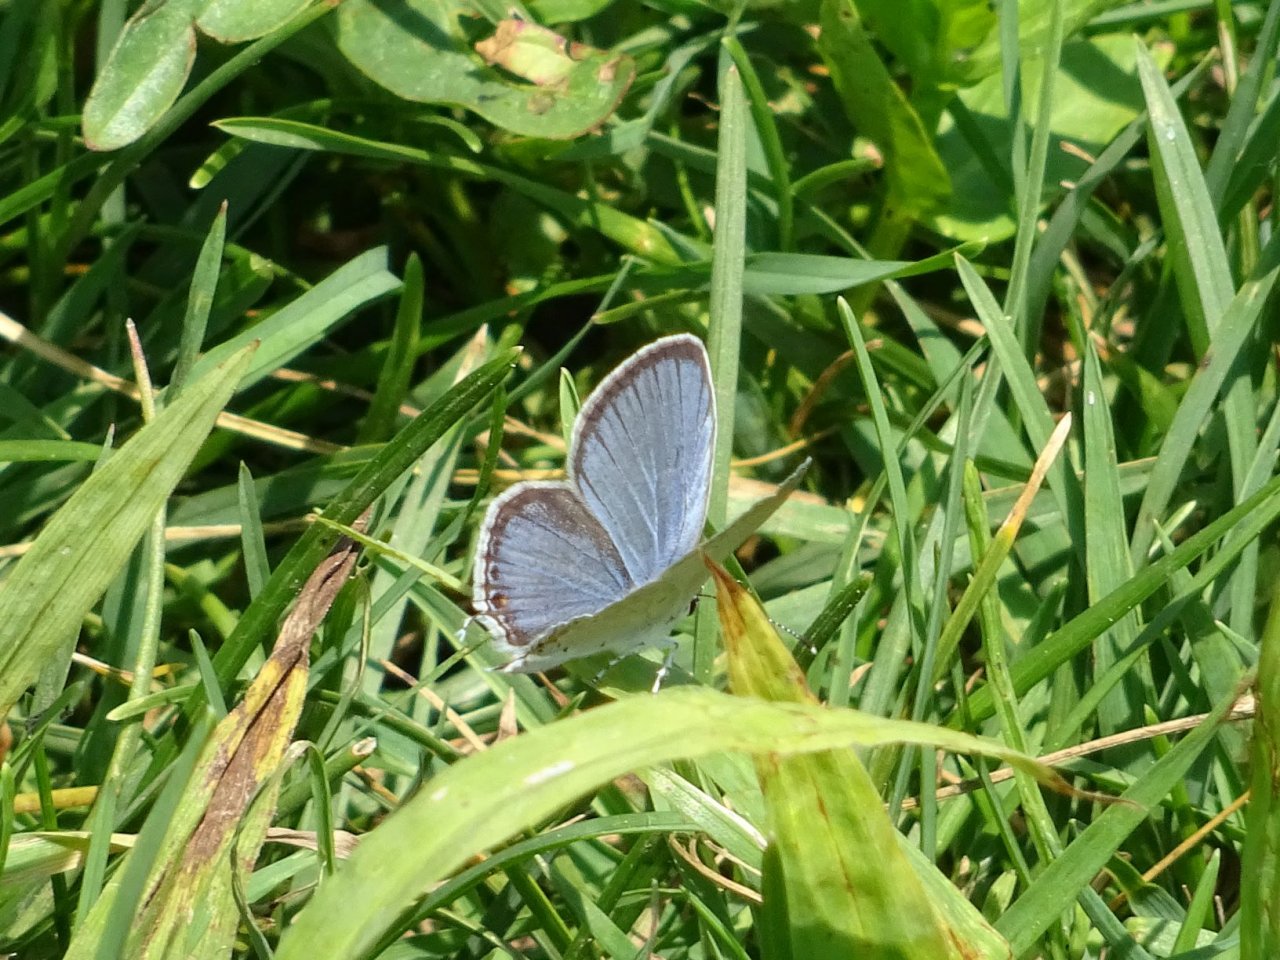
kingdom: Animalia
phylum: Arthropoda
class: Insecta
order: Lepidoptera
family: Lycaenidae
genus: Elkalyce
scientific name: Elkalyce comyntas
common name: Eastern Tailed-Blue
